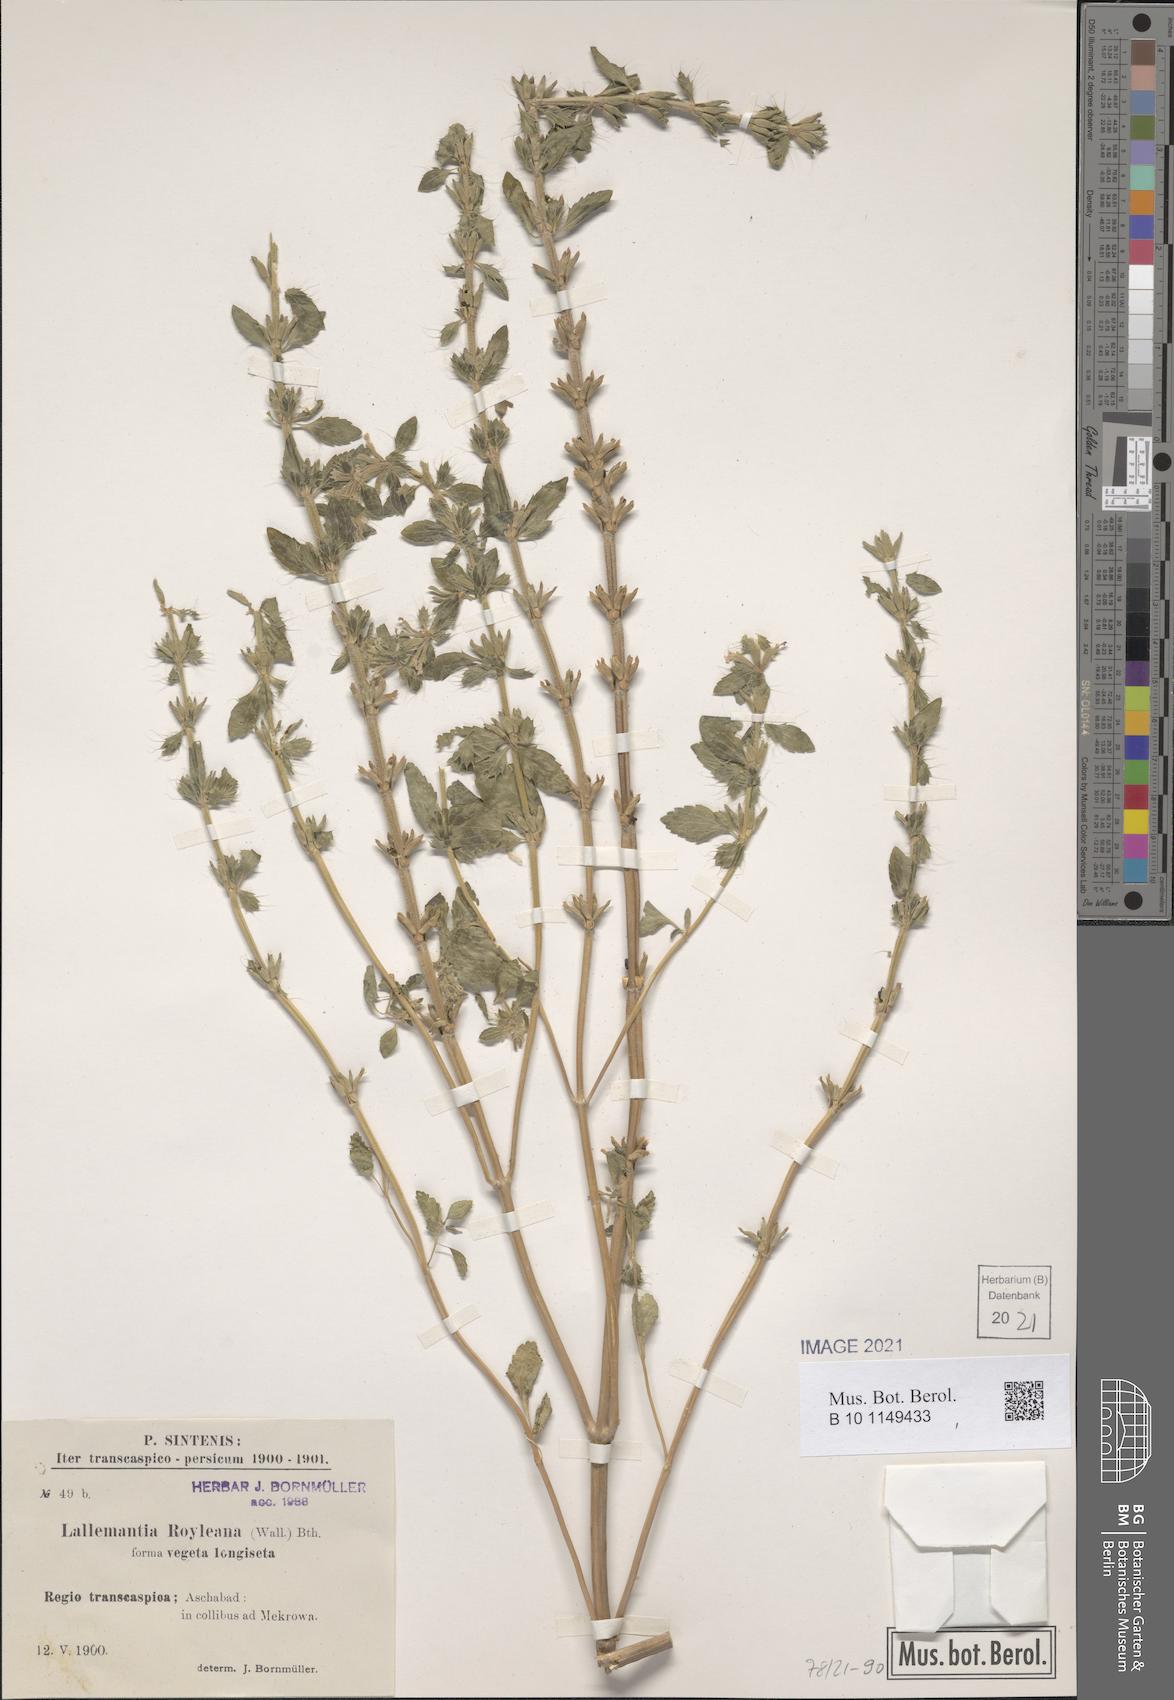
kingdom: Plantae
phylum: Tracheophyta
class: Magnoliopsida
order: Lamiales
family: Lamiaceae
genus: Lallemantia
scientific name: Lallemantia royleana
